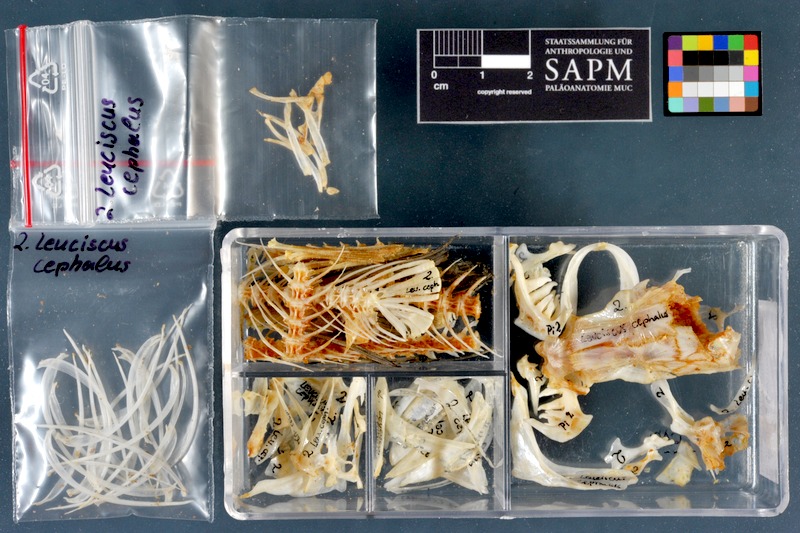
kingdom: Animalia
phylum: Chordata
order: Cypriniformes
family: Cyprinidae
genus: Squalius
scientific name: Squalius cephalus
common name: Chub
